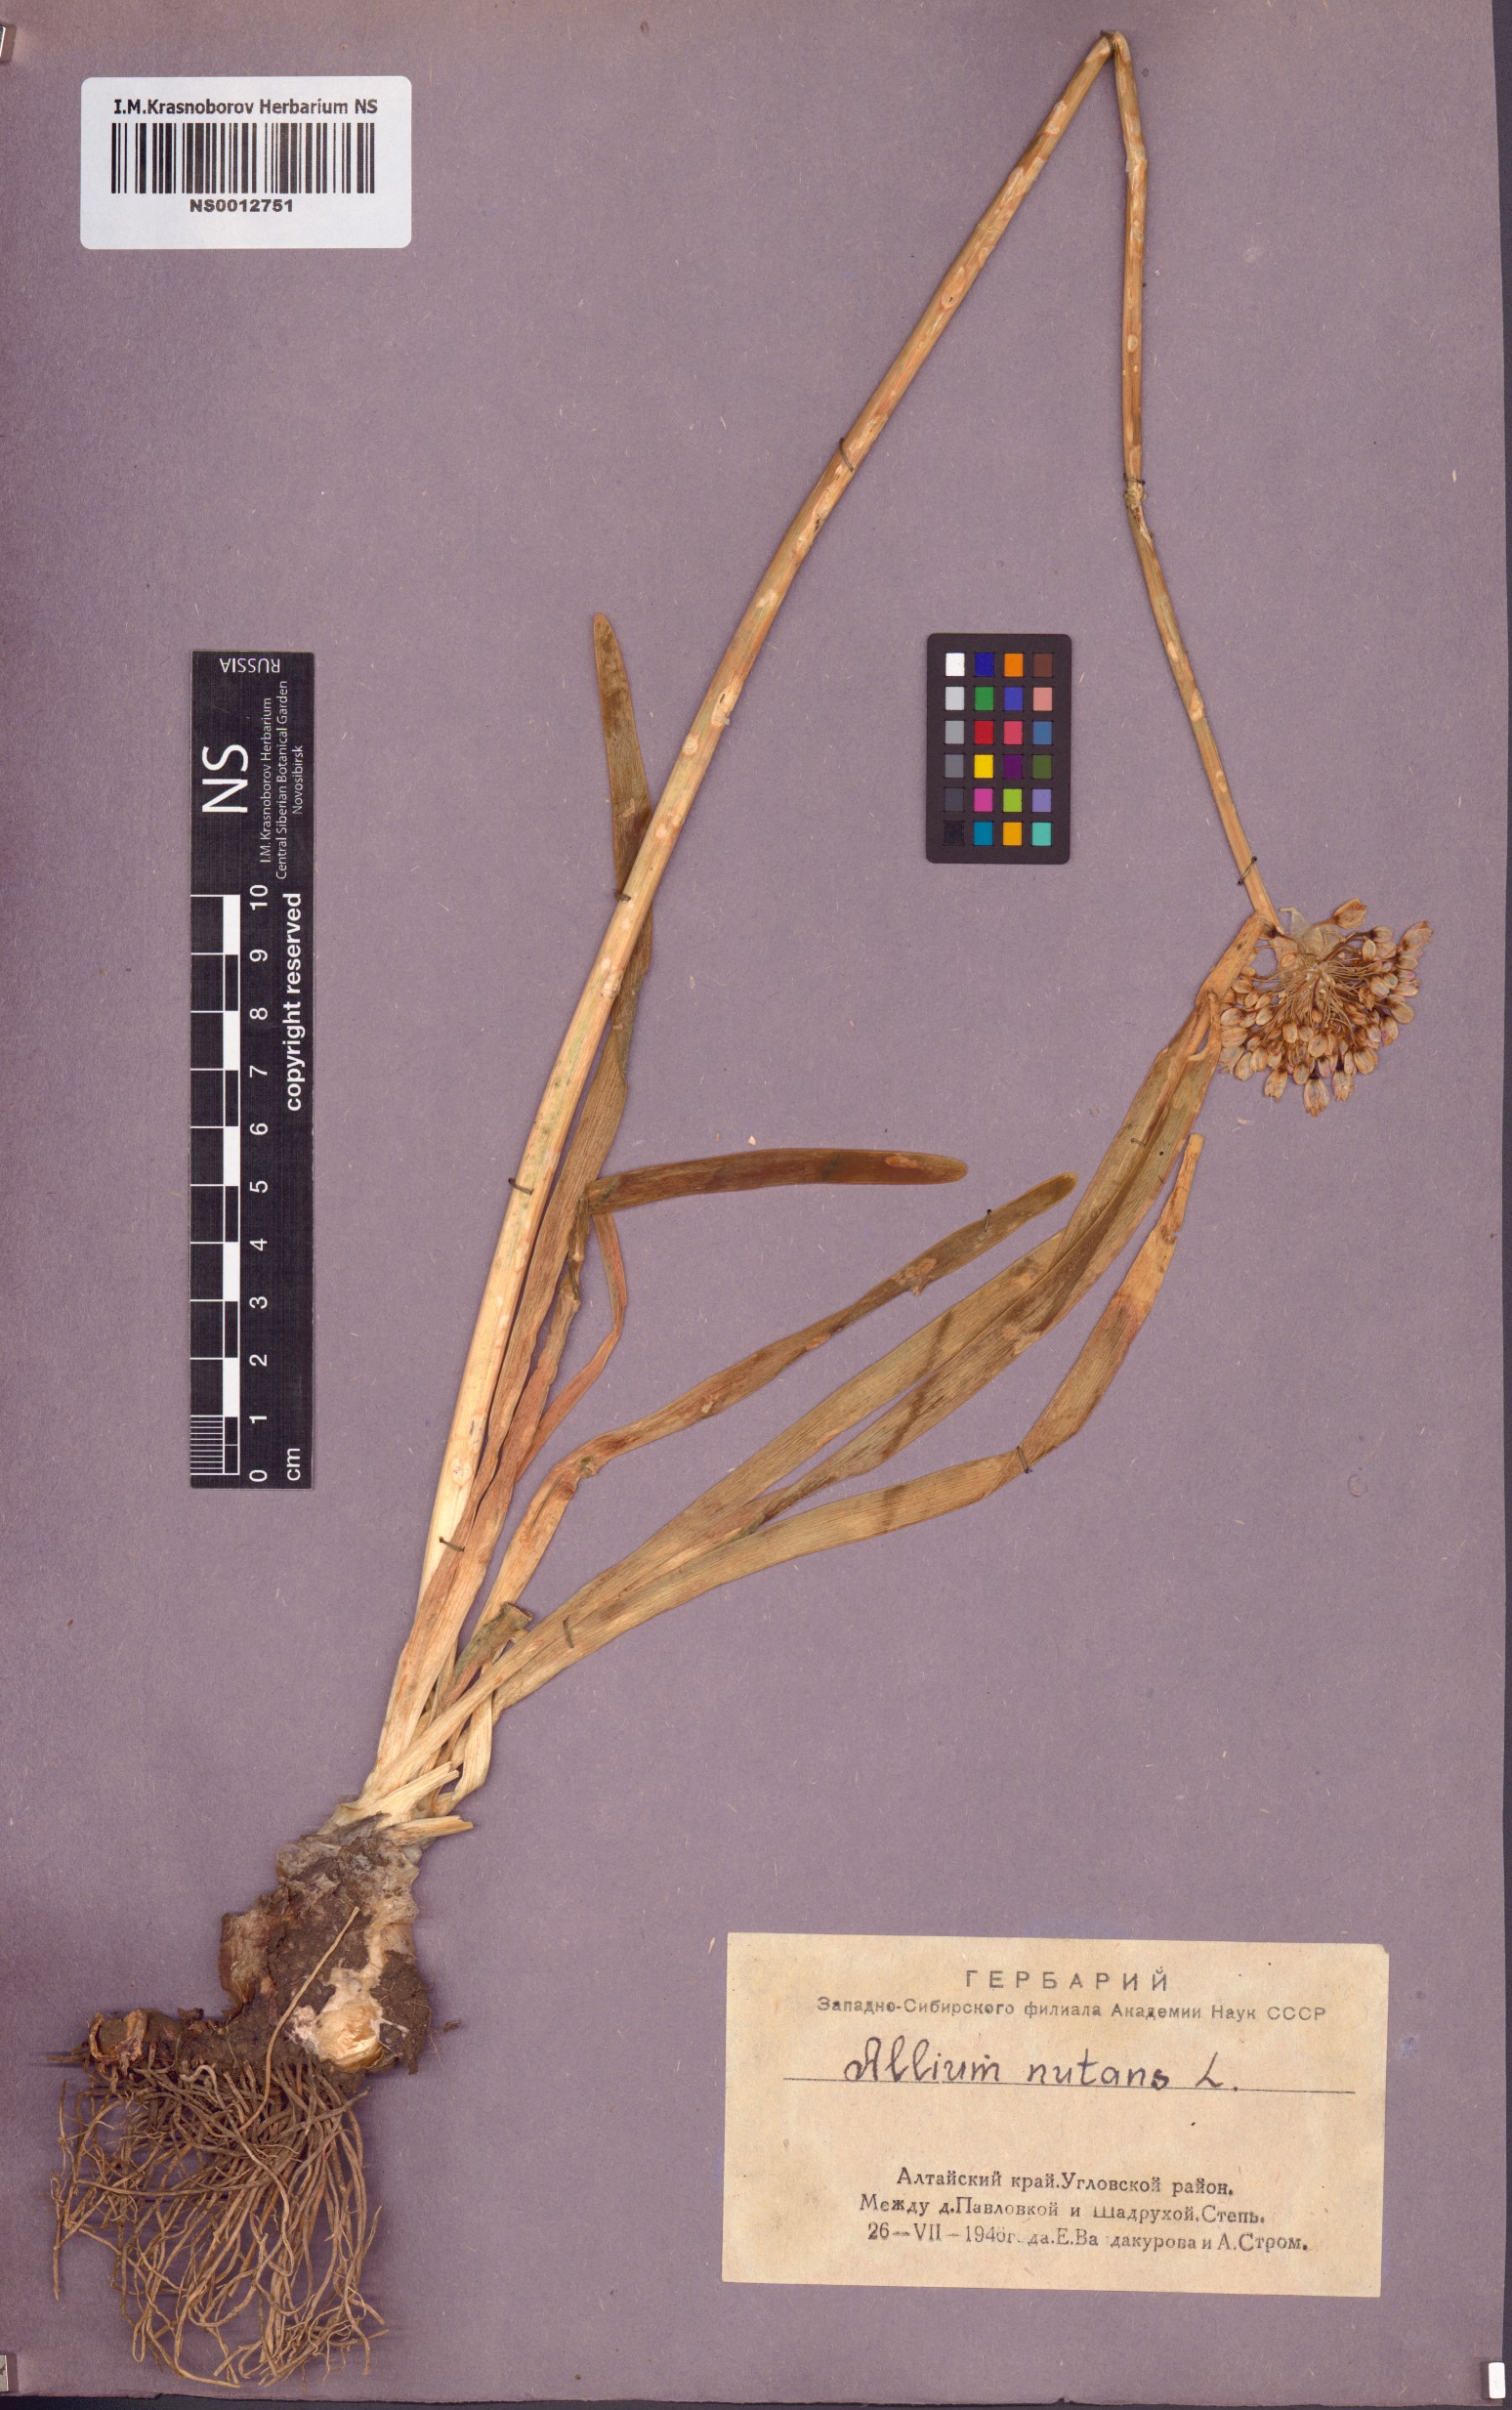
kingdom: Plantae
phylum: Tracheophyta
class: Liliopsida
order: Asparagales
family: Amaryllidaceae
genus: Allium
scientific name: Allium nutans
